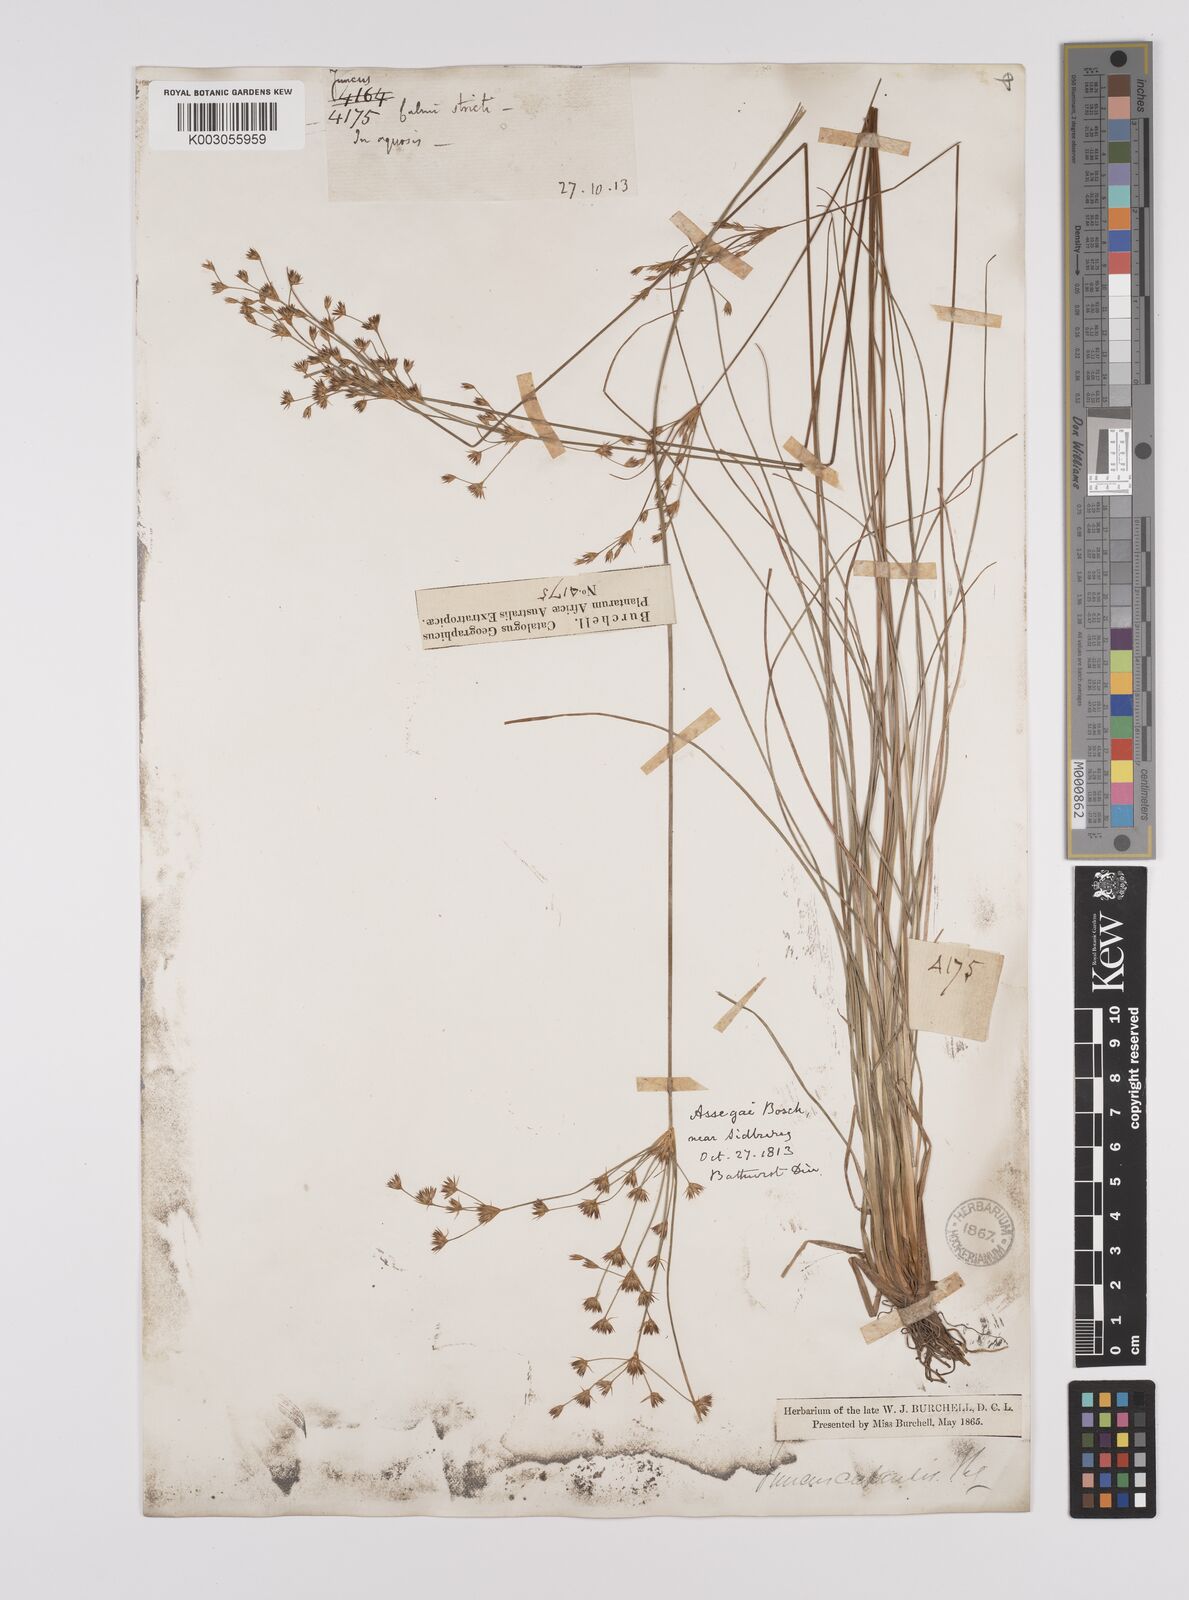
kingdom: Plantae
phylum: Tracheophyta
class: Liliopsida
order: Poales
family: Juncaceae
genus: Juncus
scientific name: Juncus capensis
